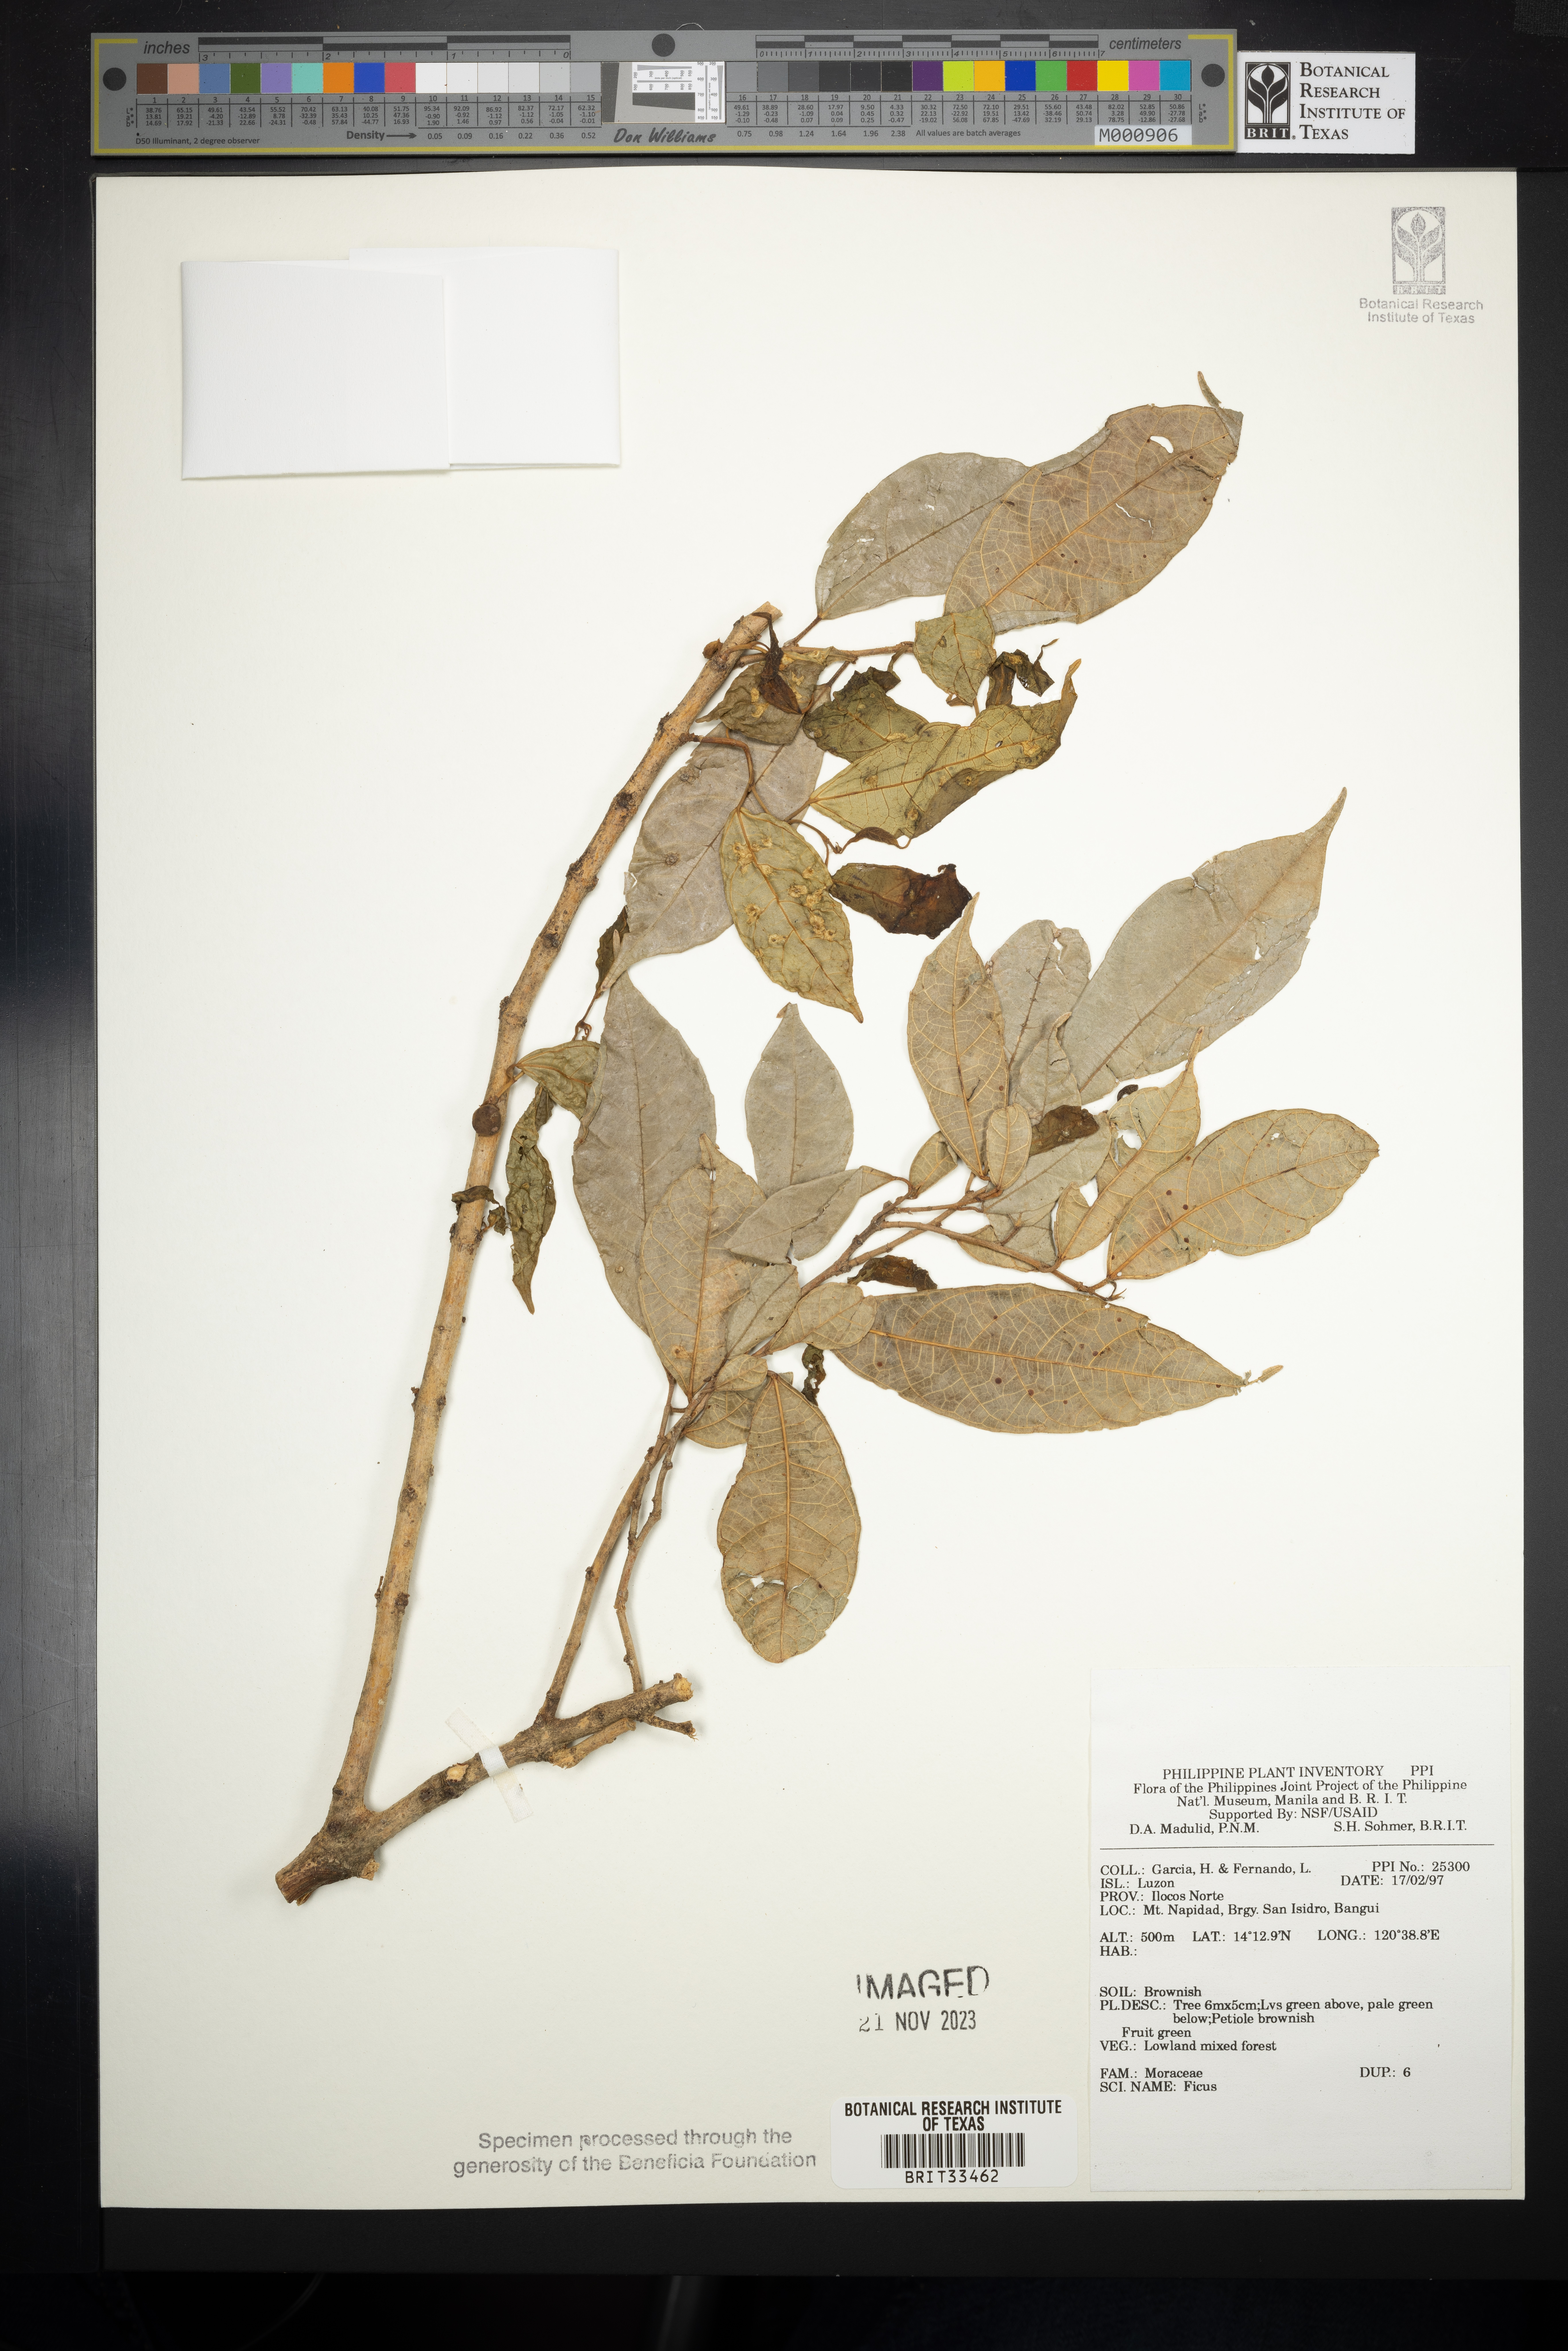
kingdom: Plantae
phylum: Tracheophyta
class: Magnoliopsida
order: Rosales
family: Moraceae
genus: Ficus
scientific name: Ficus
